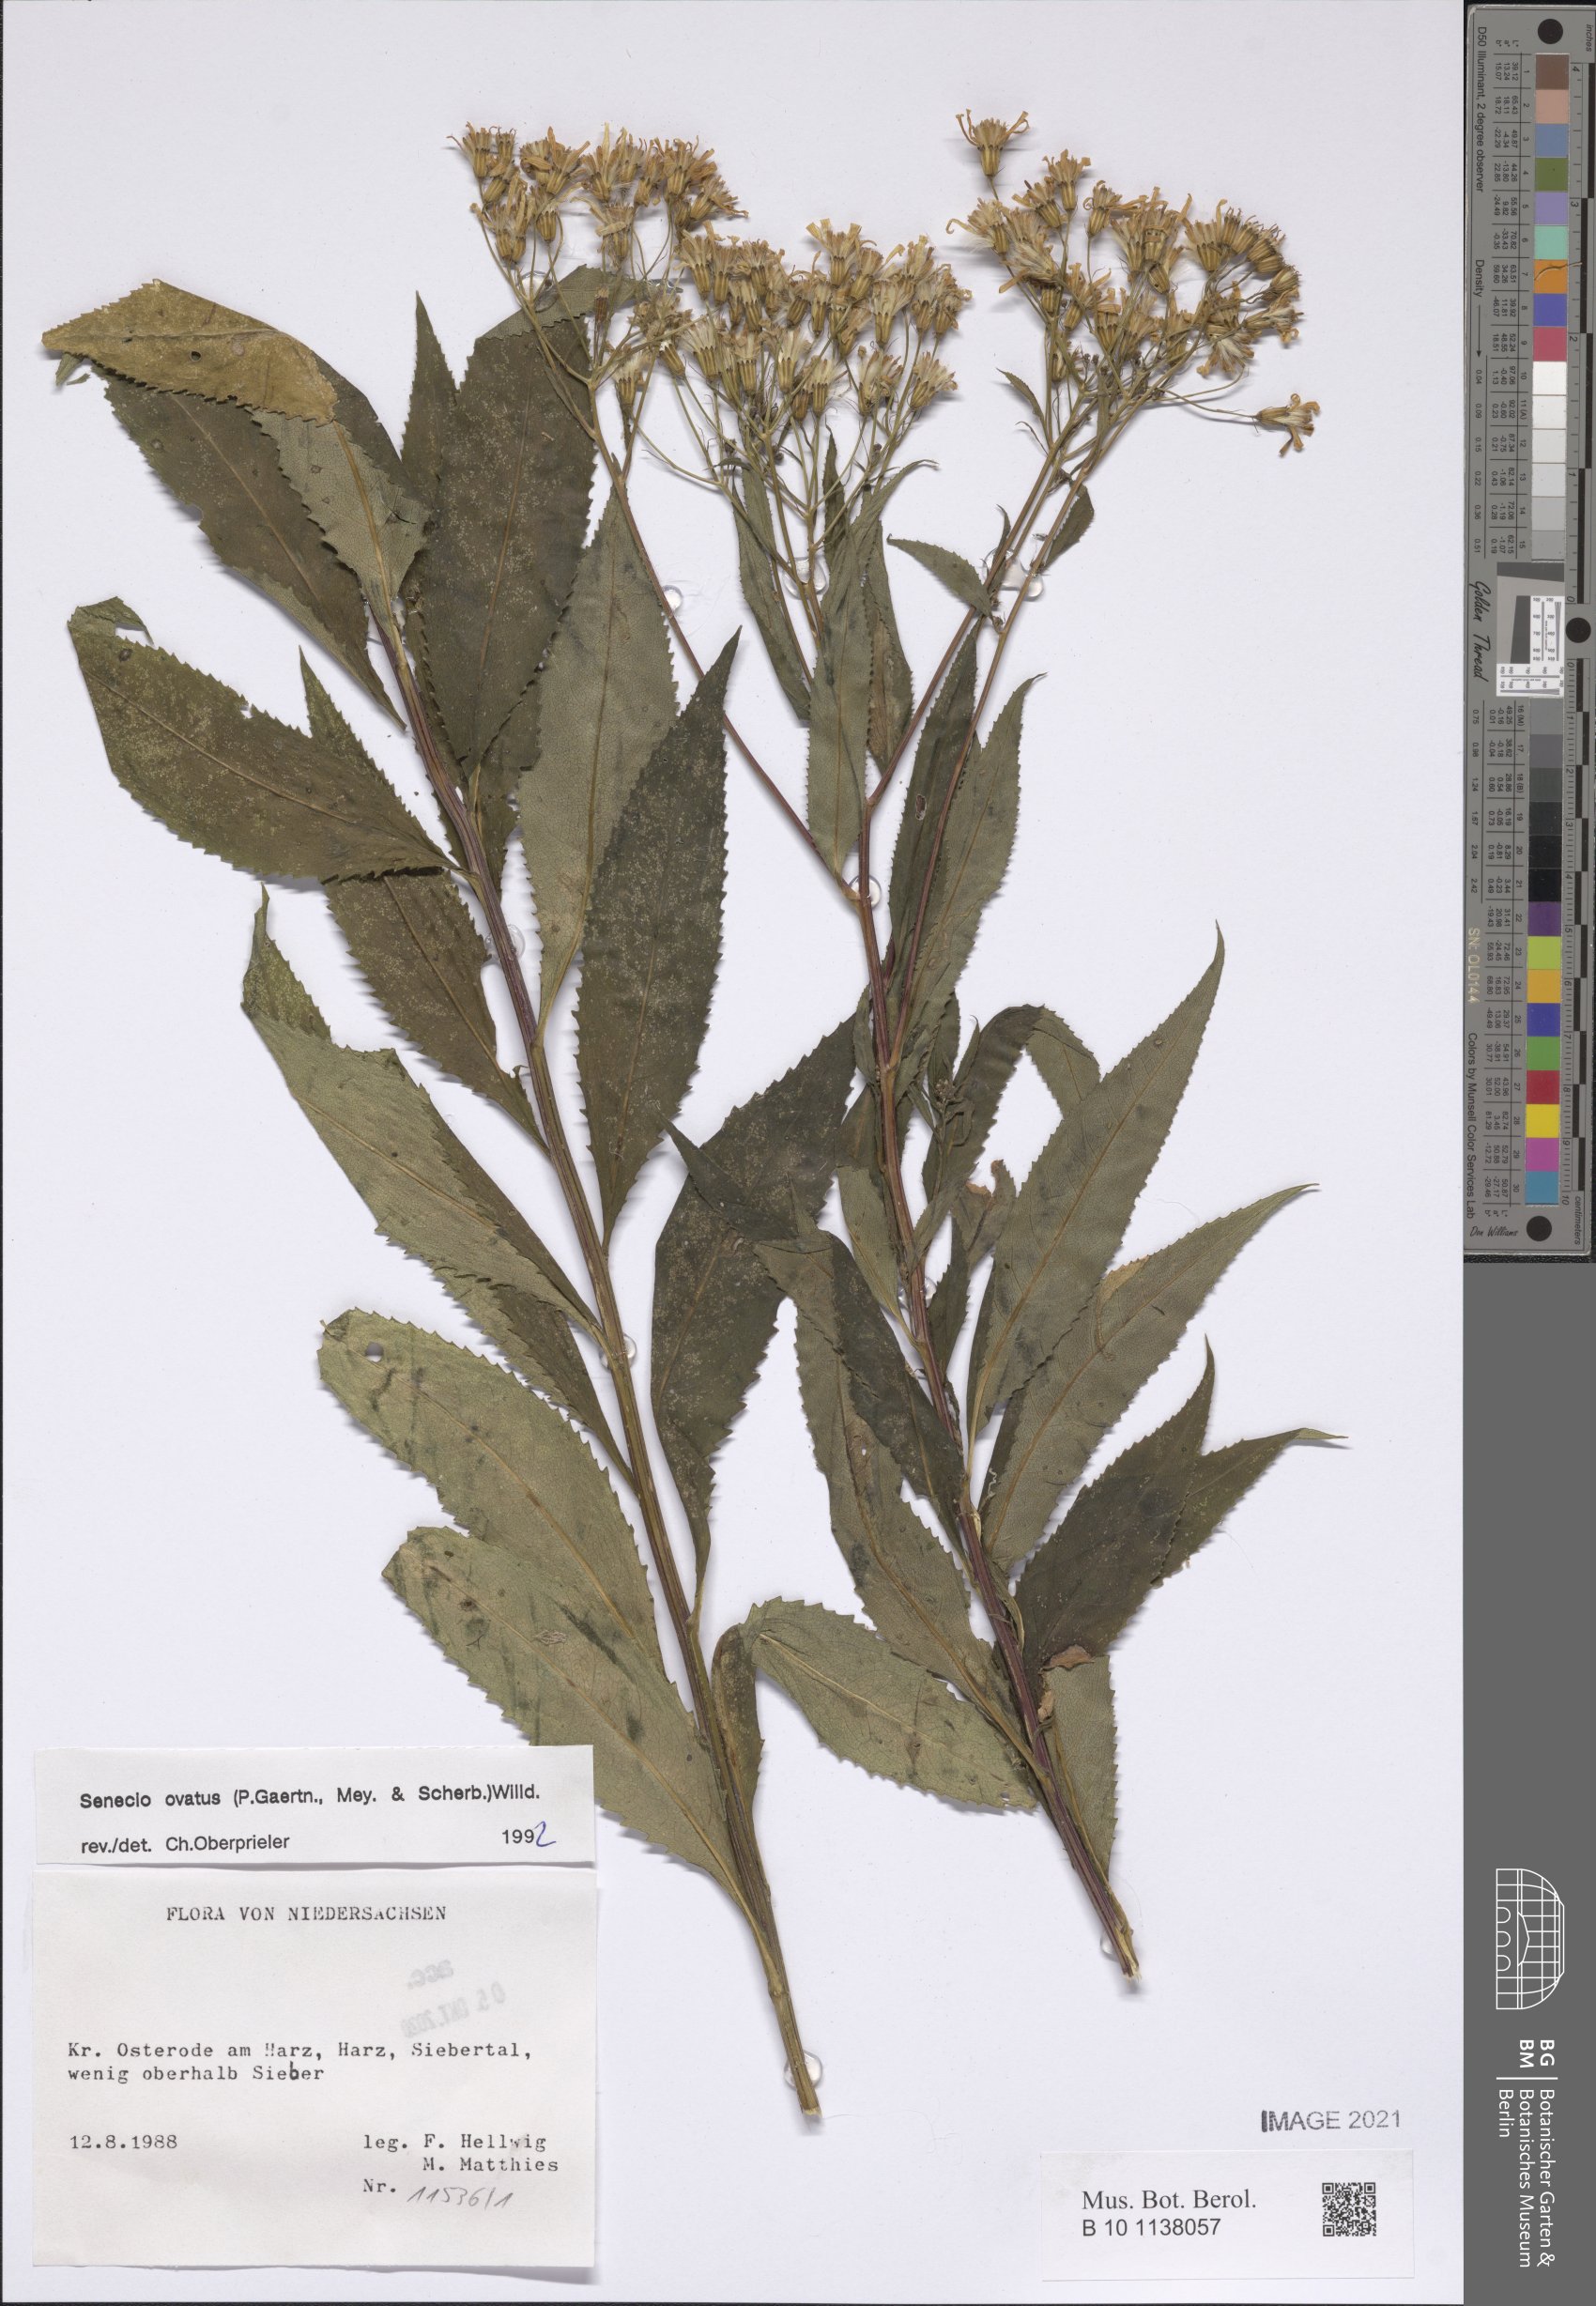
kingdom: Plantae
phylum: Tracheophyta
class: Magnoliopsida
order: Asterales
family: Asteraceae
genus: Senecio
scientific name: Senecio ovatus
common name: Wood ragwort
